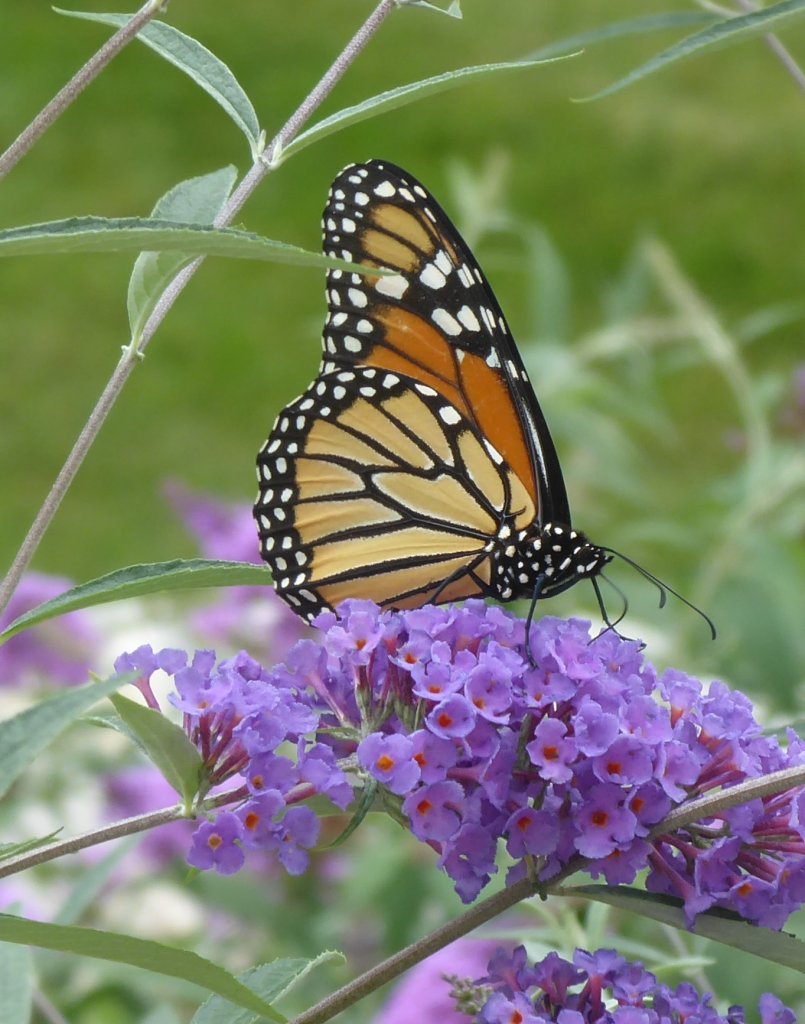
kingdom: Animalia
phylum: Arthropoda
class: Insecta
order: Lepidoptera
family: Nymphalidae
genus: Danaus
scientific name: Danaus plexippus
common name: Monarch
